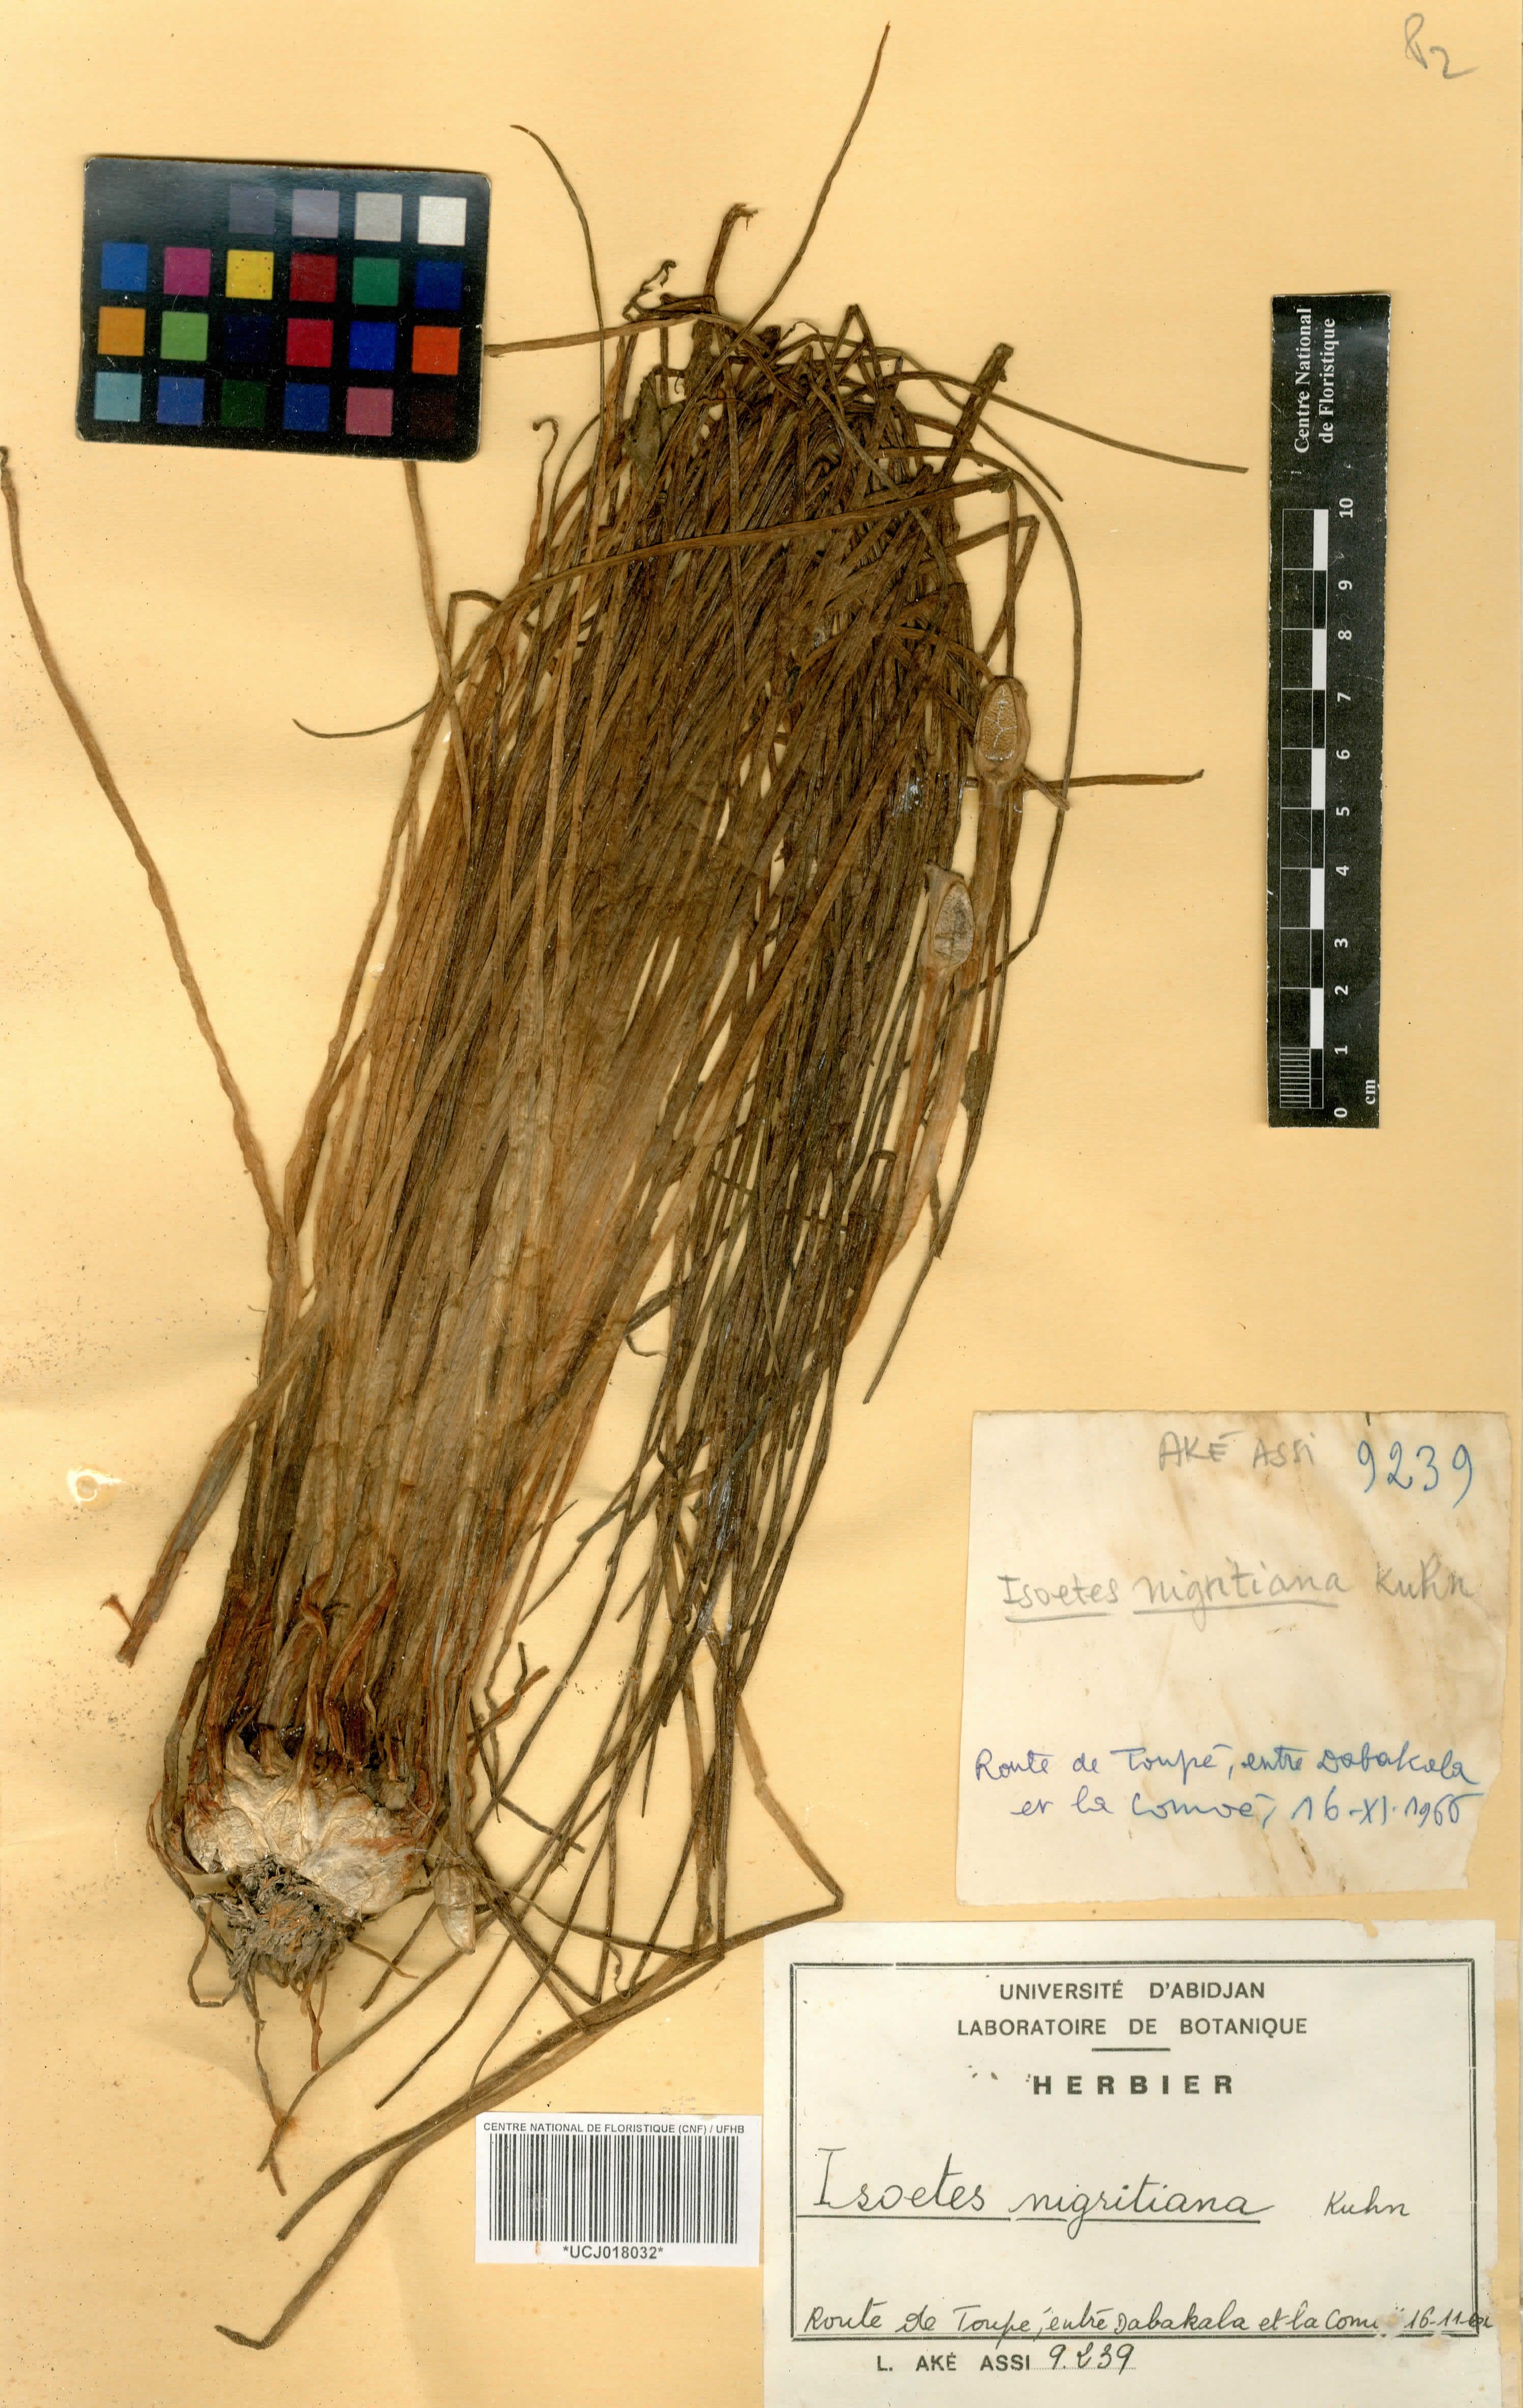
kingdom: Plantae
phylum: Tracheophyta
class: Lycopodiopsida
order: Isoetales
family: Isoetaceae
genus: Isoetes
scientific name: Isoetes nigritiana
